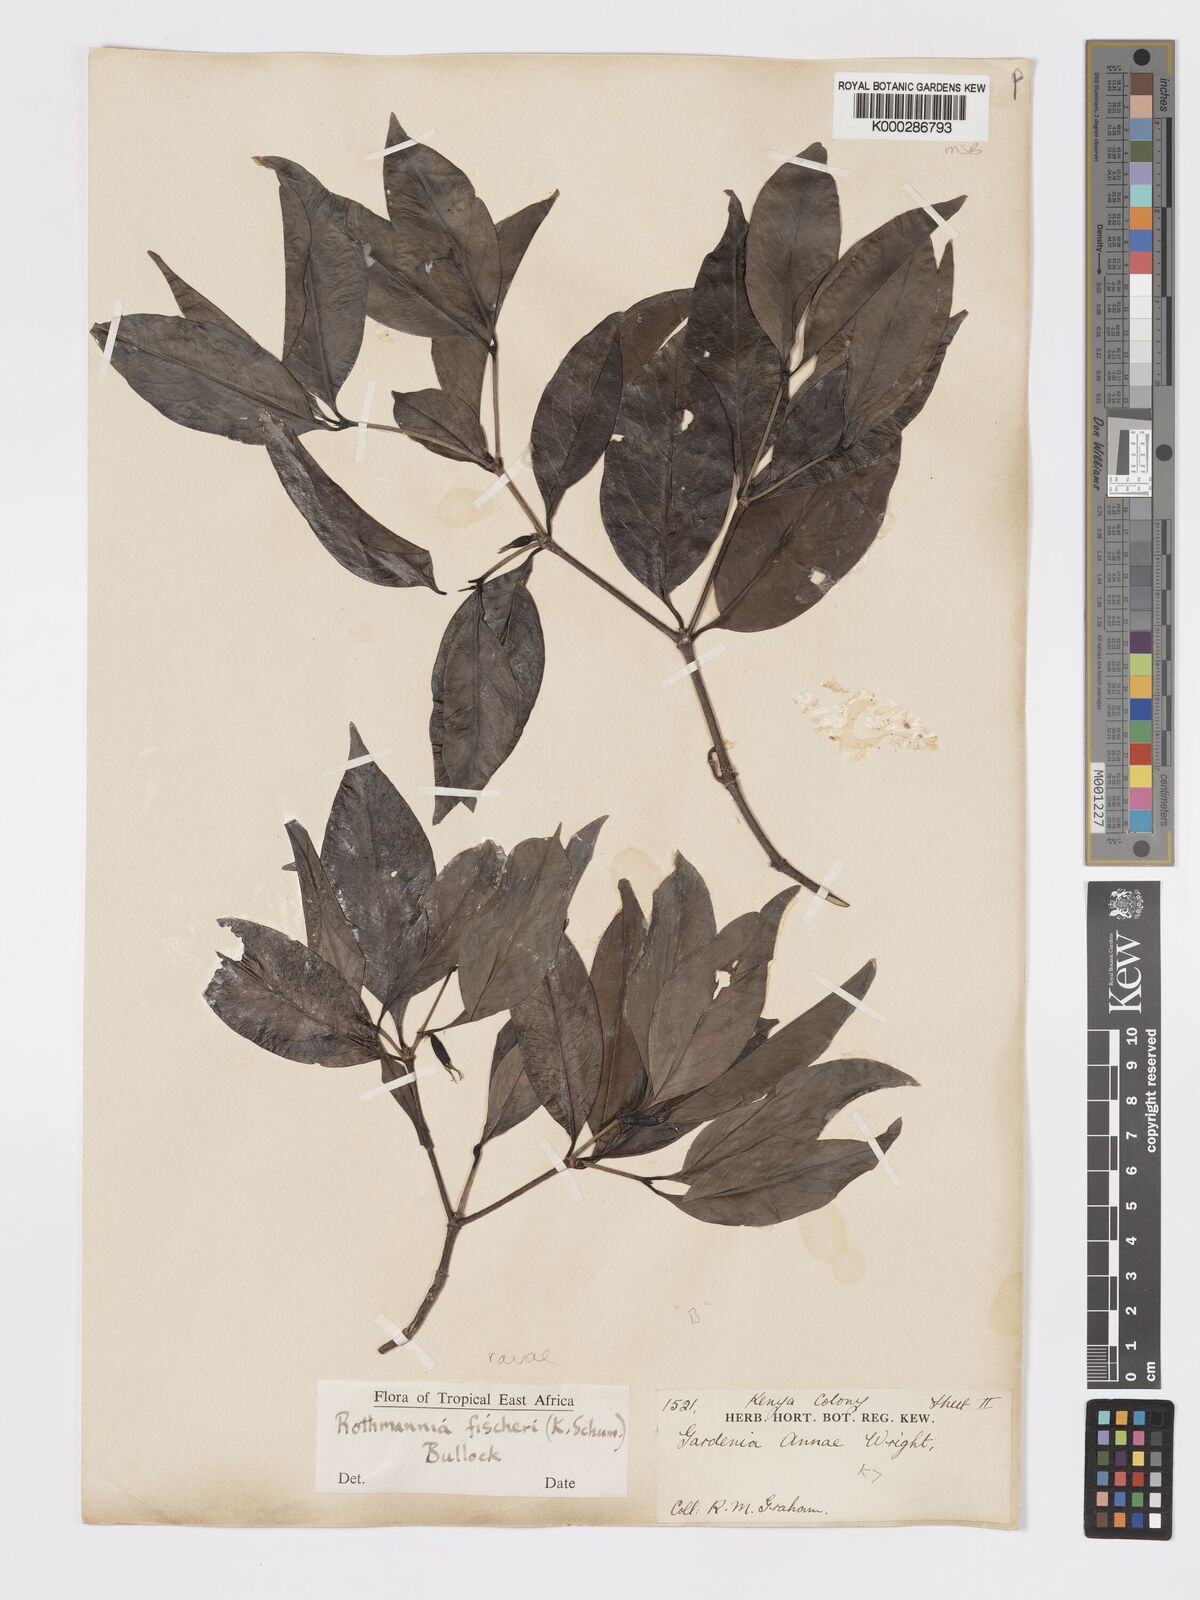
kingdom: Plantae
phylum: Tracheophyta
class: Magnoliopsida
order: Gentianales
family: Rubiaceae
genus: Rothmannia
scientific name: Rothmannia ravae
